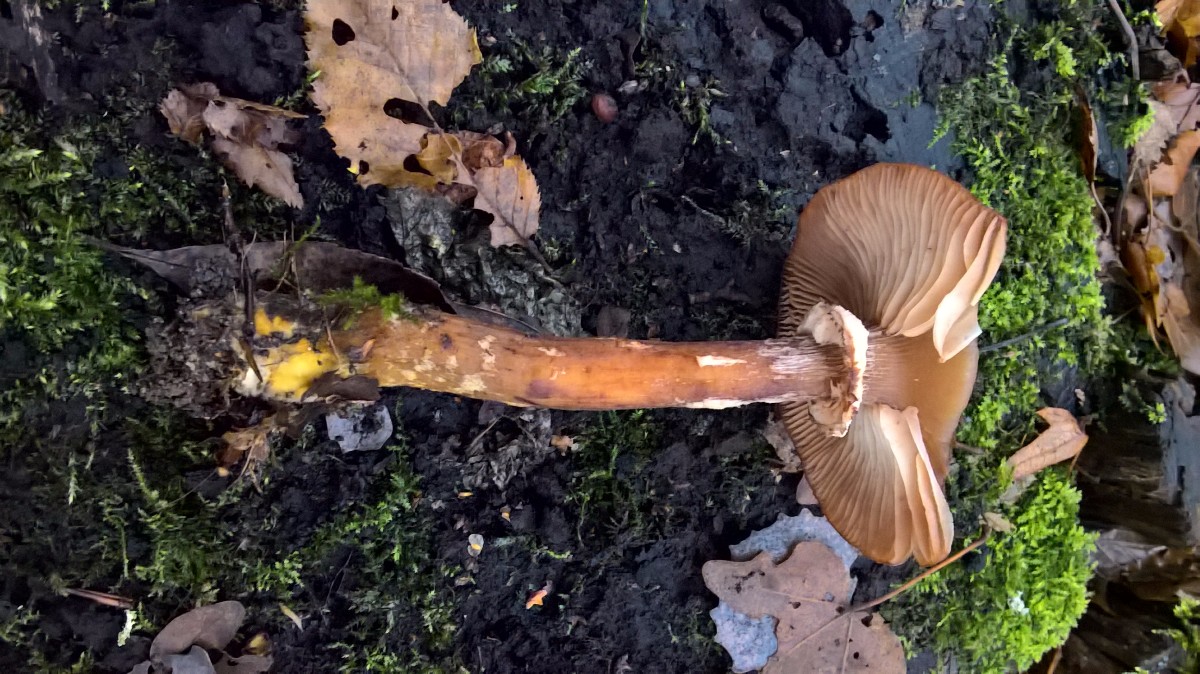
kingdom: Fungi
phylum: Basidiomycota
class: Agaricomycetes
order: Agaricales
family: Physalacriaceae
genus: Armillaria
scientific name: Armillaria lutea
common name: køllestokket honningsvamp
